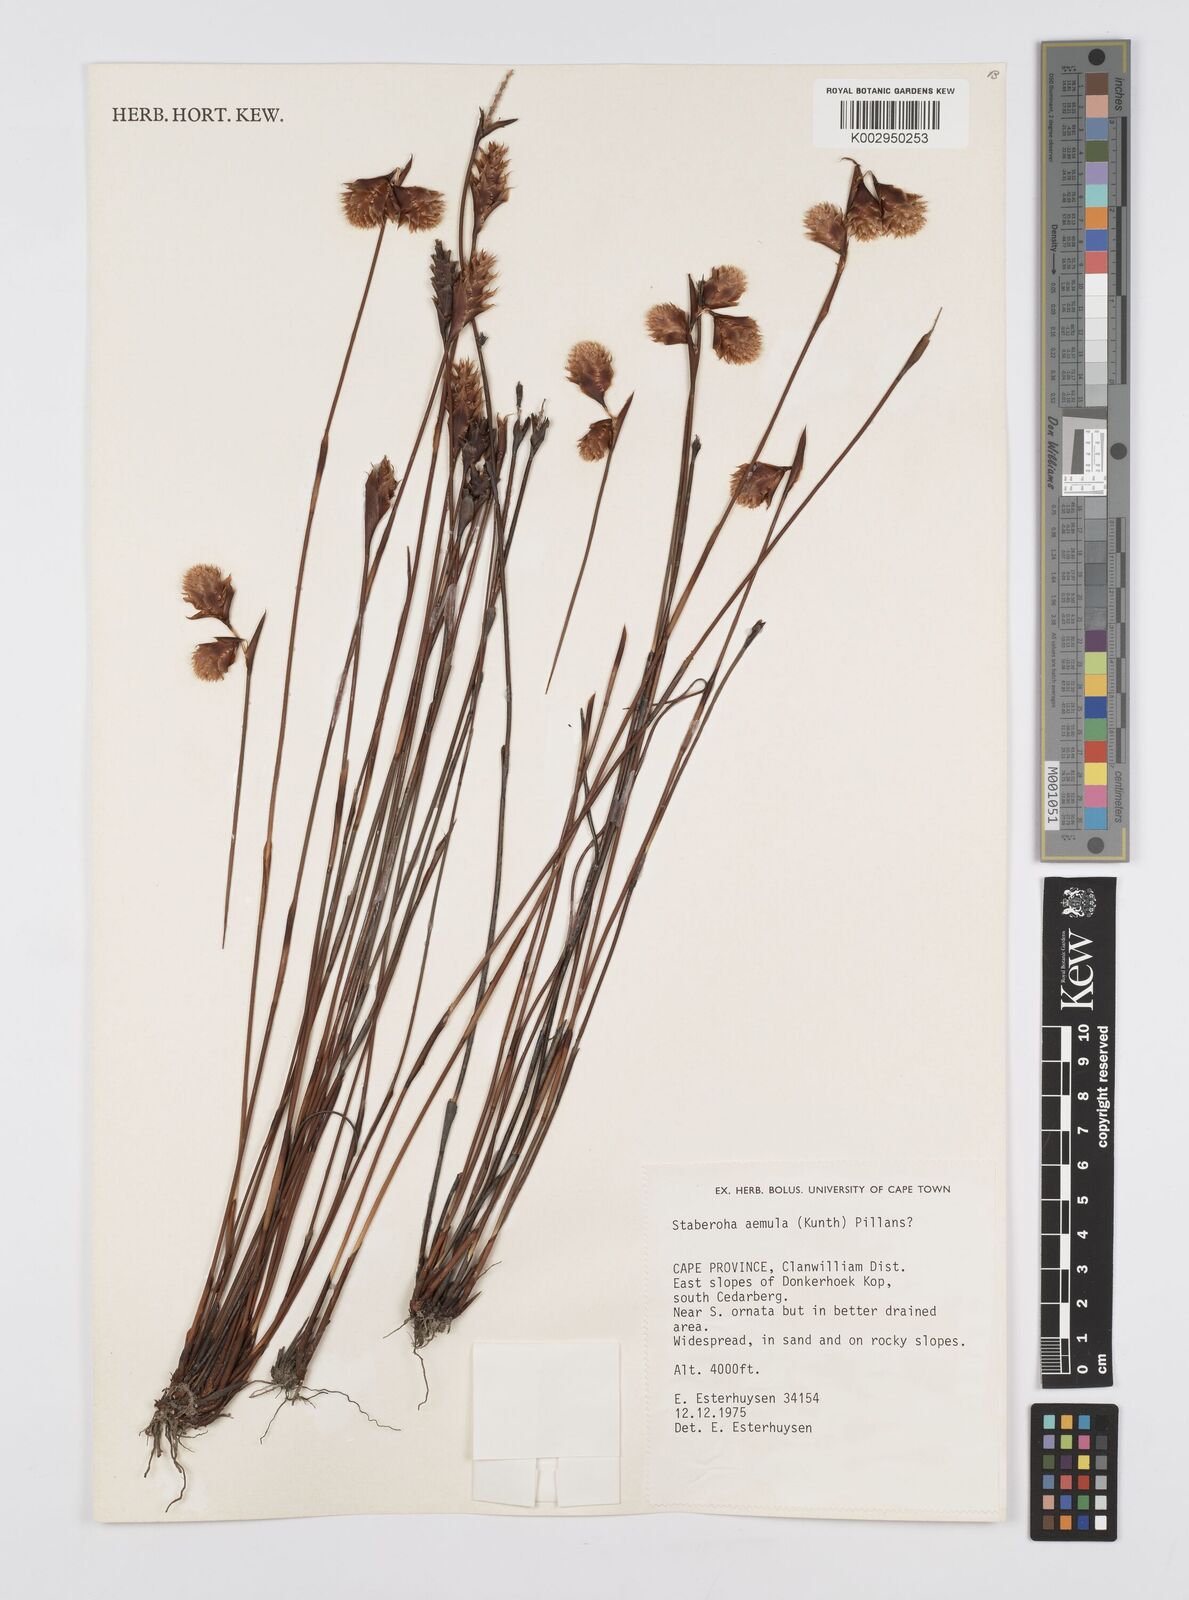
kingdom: Plantae
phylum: Tracheophyta
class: Liliopsida
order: Poales
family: Restionaceae
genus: Staberoha
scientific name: Staberoha aemula
